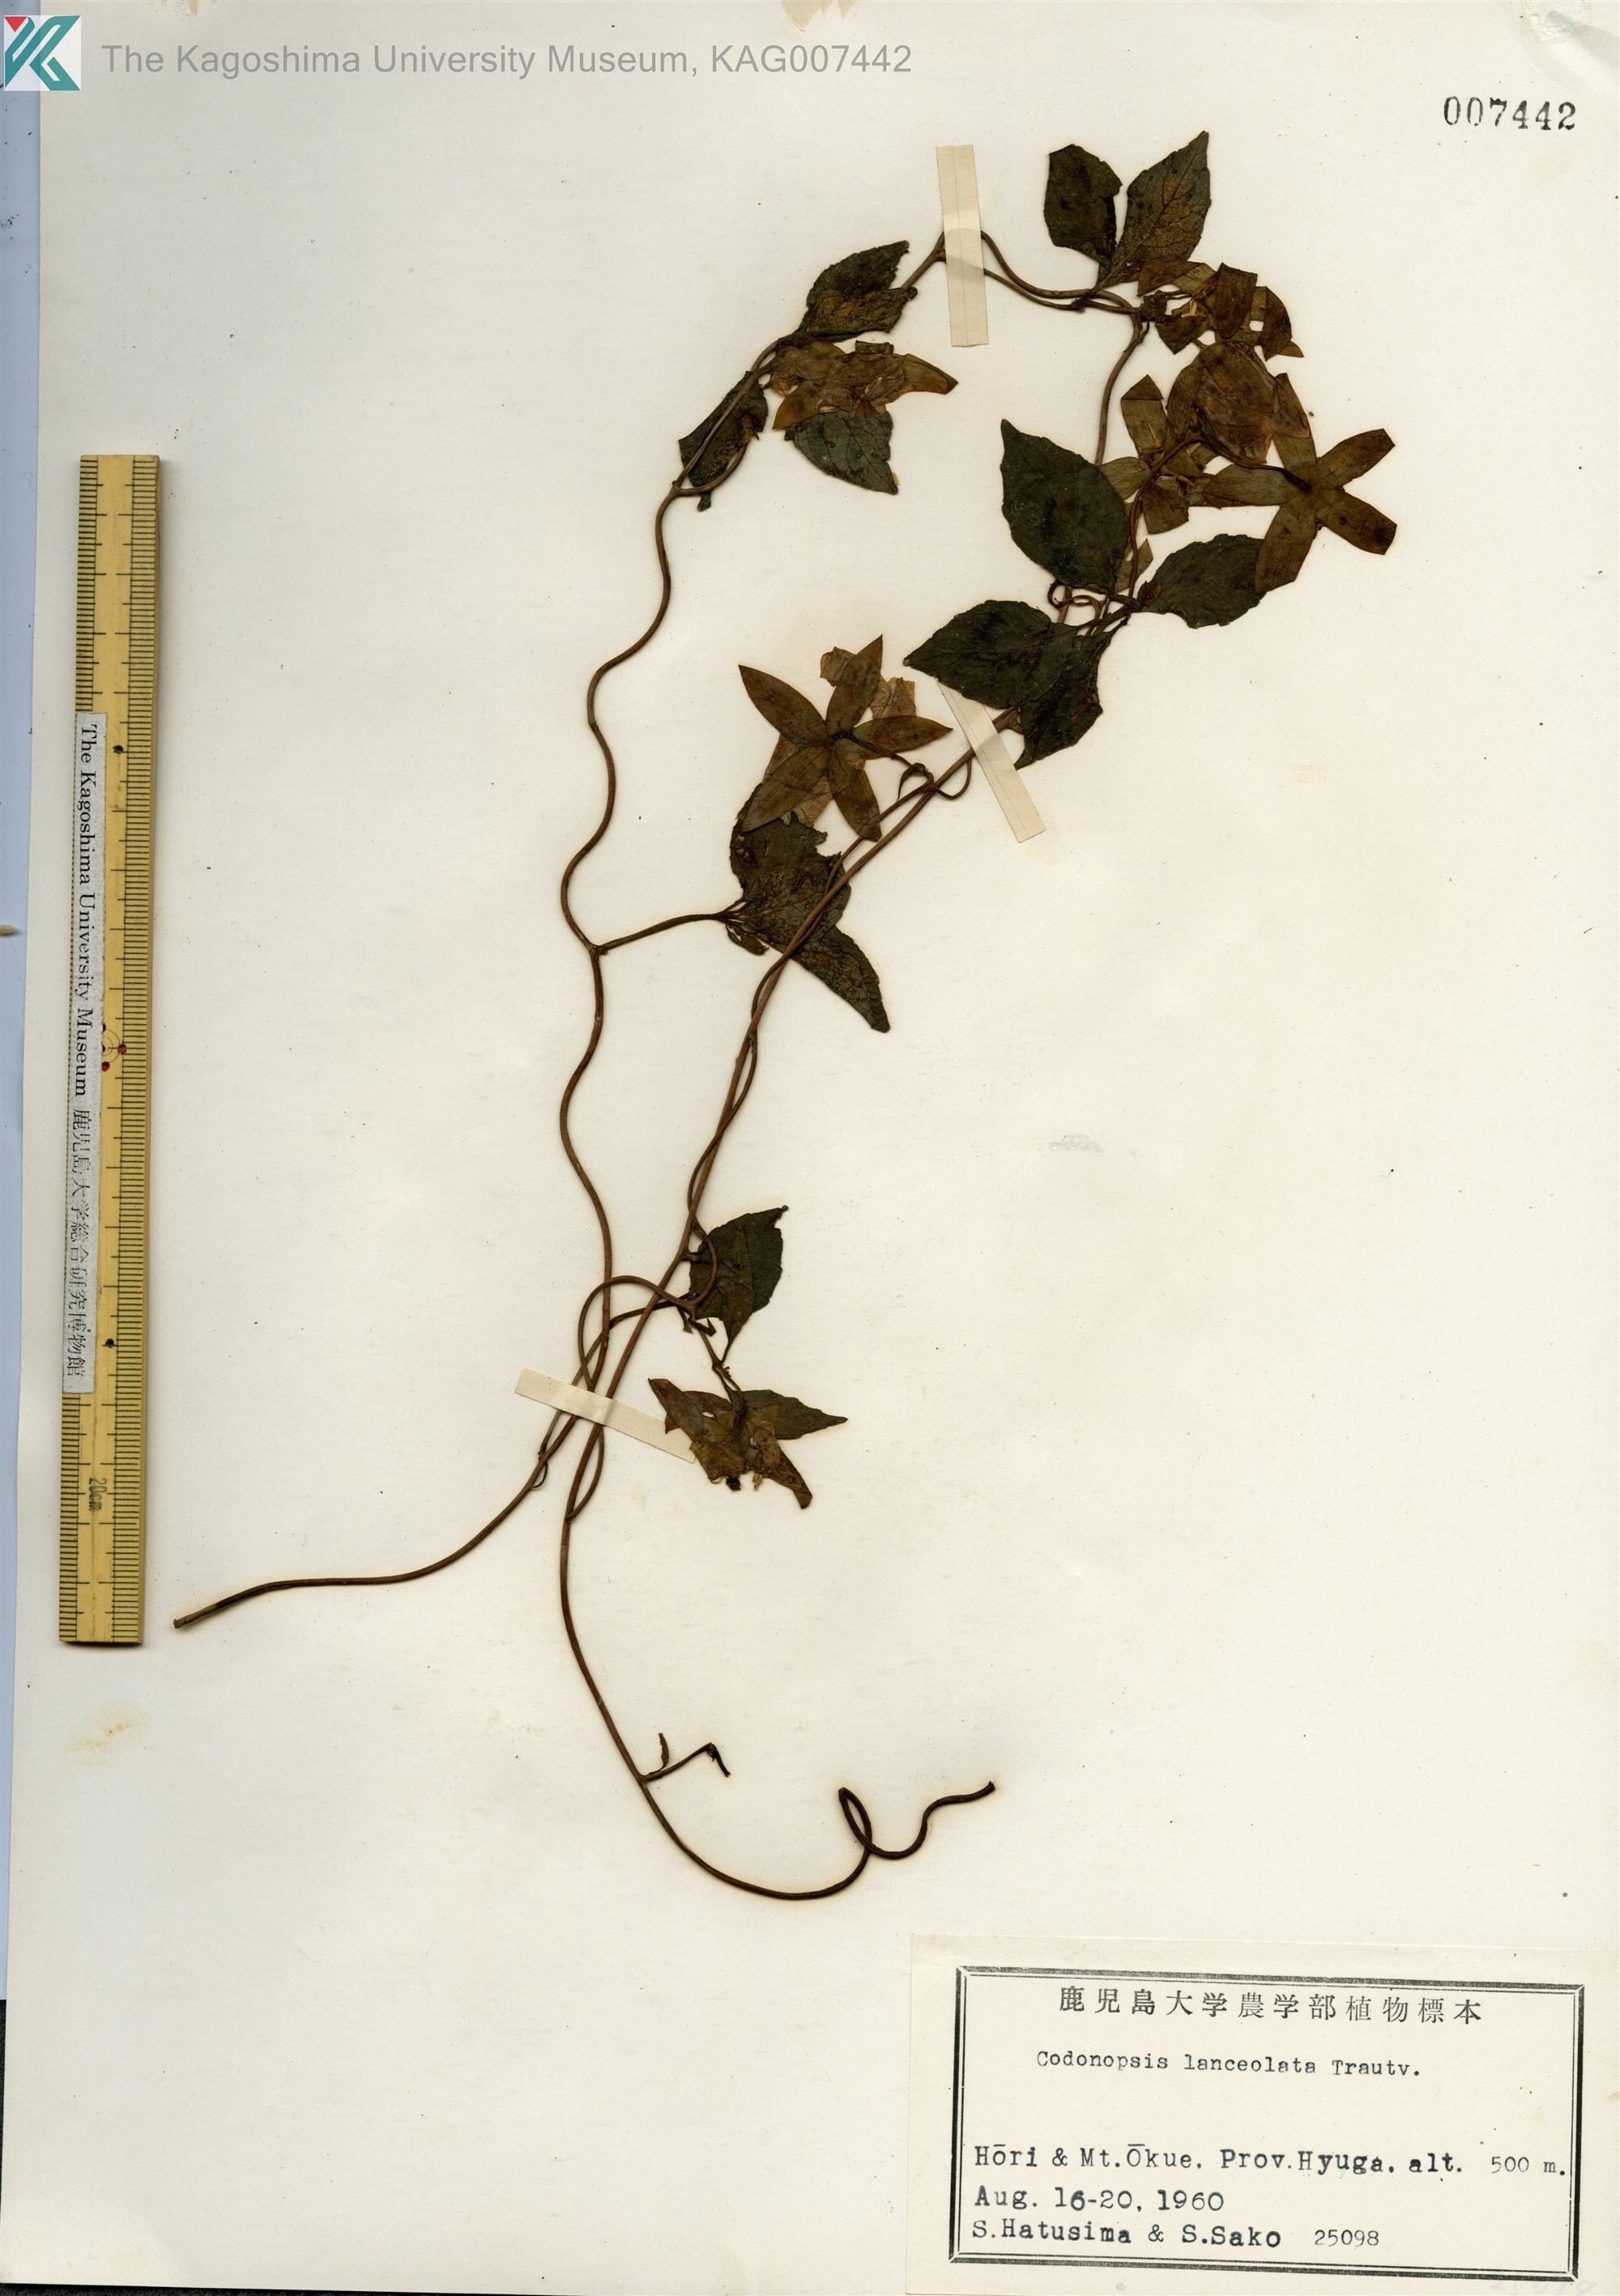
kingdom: Plantae
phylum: Tracheophyta
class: Magnoliopsida
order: Asterales
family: Campanulaceae
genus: Codonopsis
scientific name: Codonopsis lanceolata
